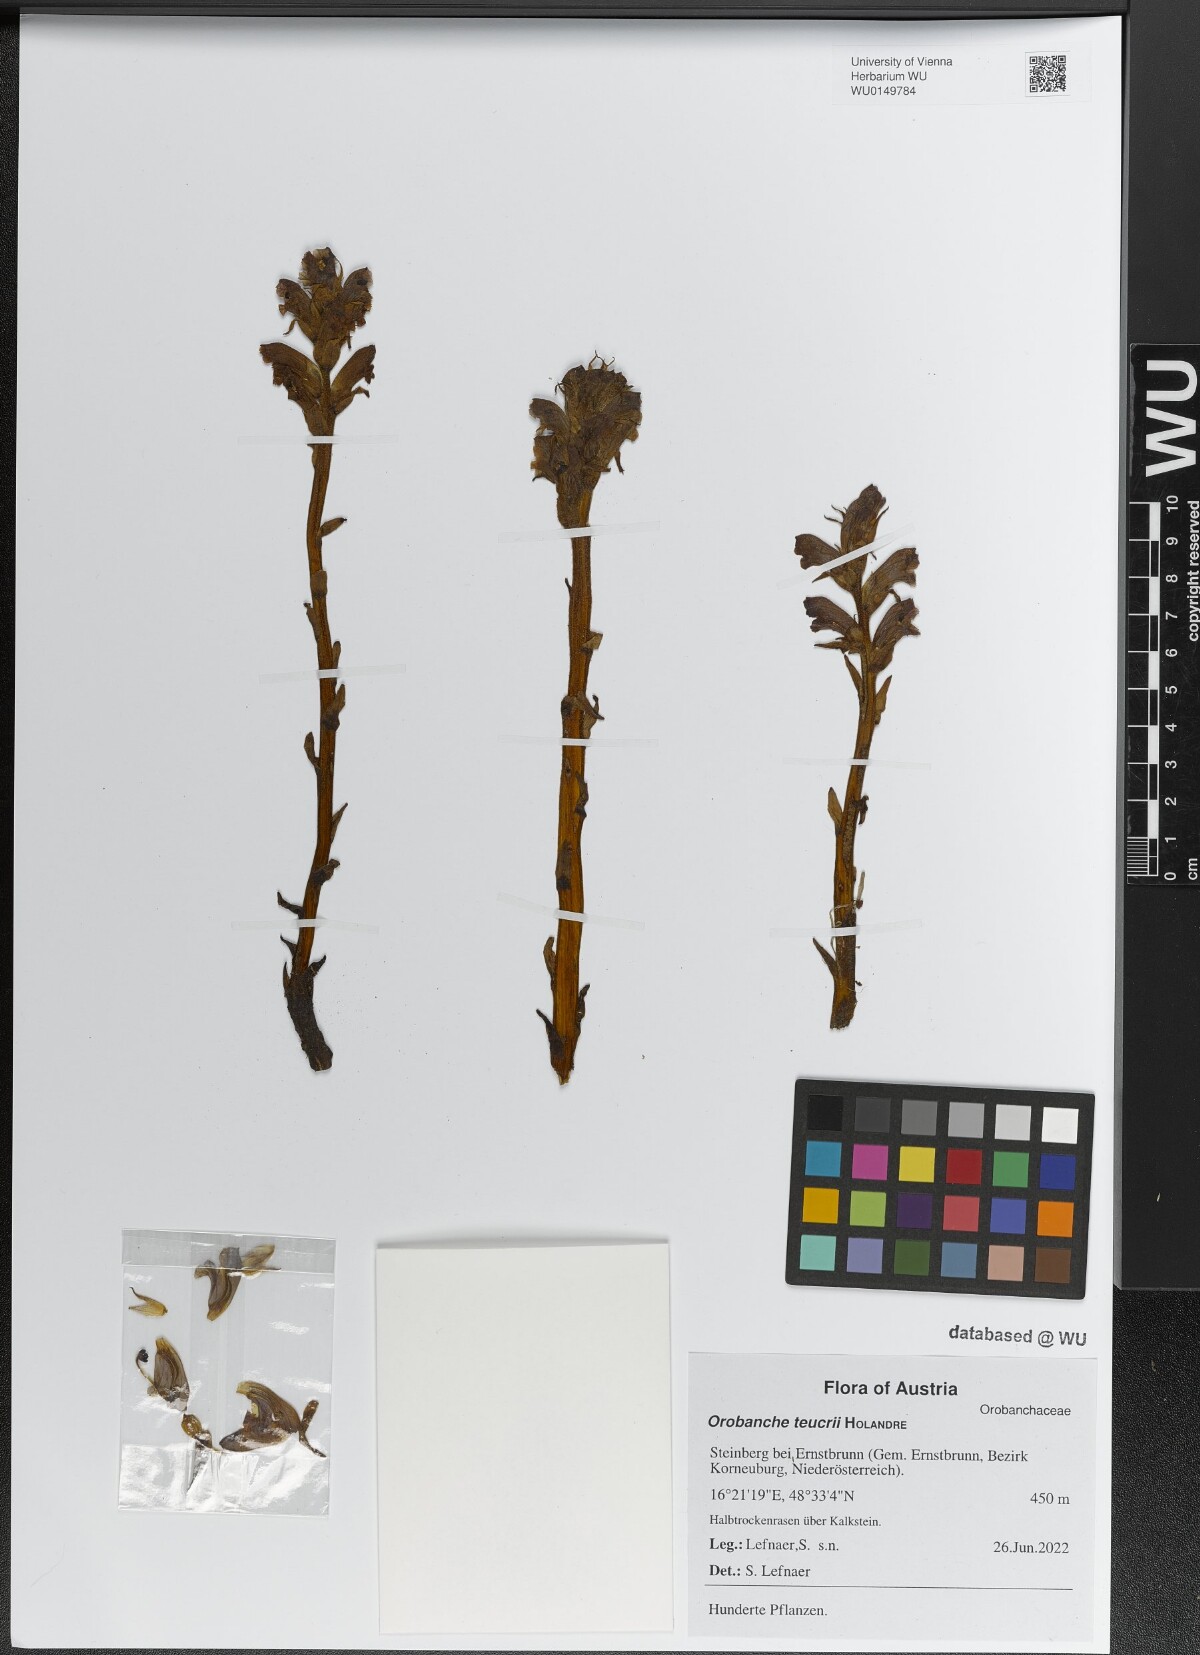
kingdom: Plantae
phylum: Tracheophyta
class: Magnoliopsida
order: Lamiales
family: Orobanchaceae
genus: Orobanche
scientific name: Orobanche teucrii
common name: Germander broomrape
